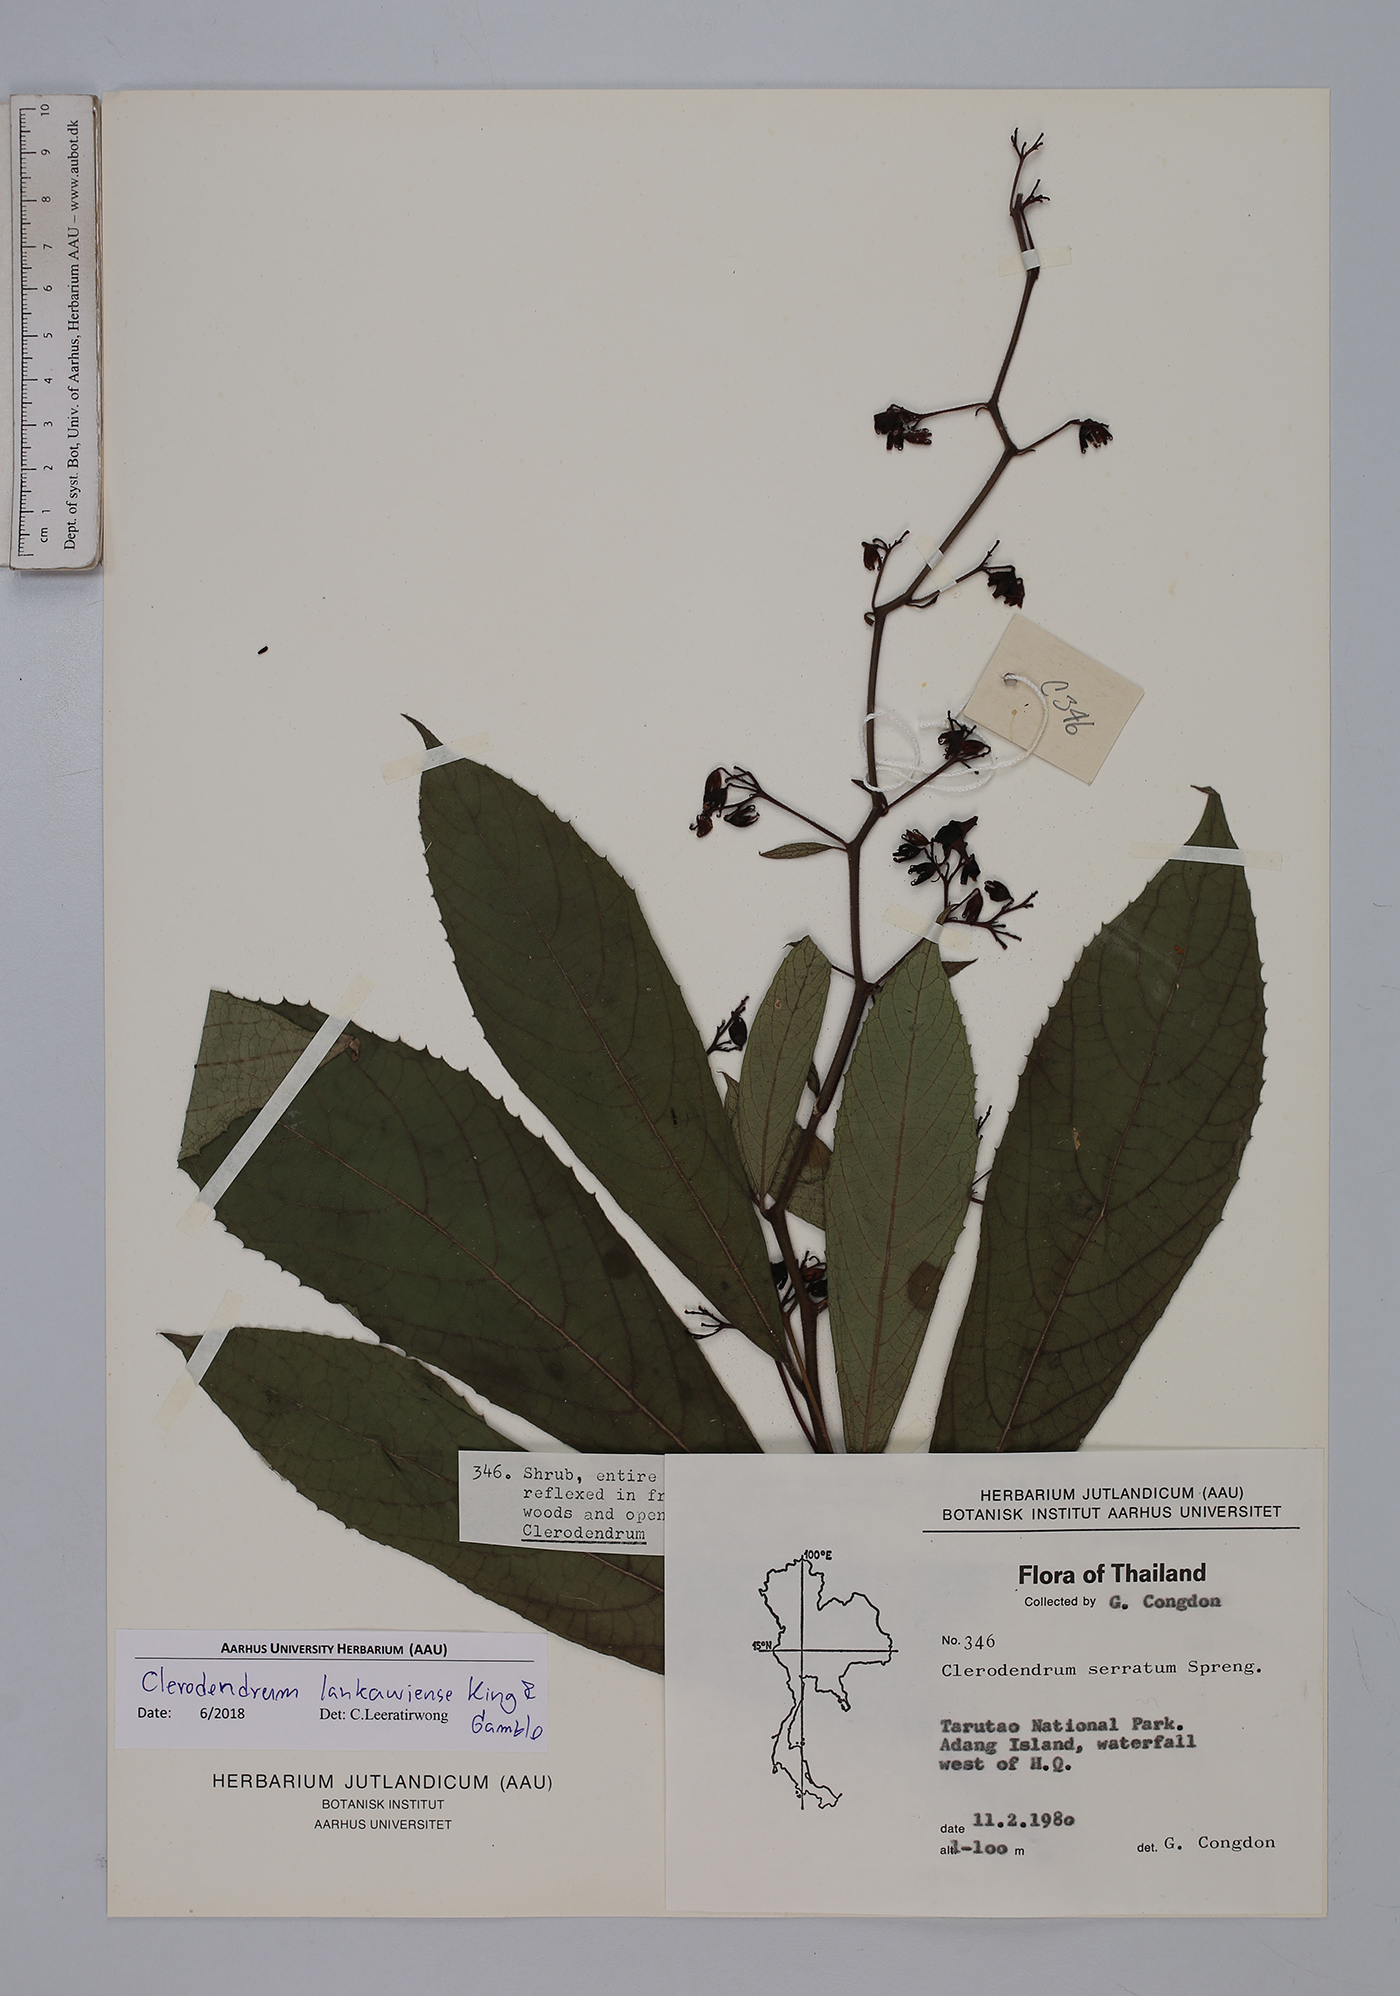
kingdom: Plantae
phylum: Tracheophyta
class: Magnoliopsida
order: Lamiales
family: Lamiaceae
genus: Clerodendrum
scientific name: Clerodendrum lankawiense
